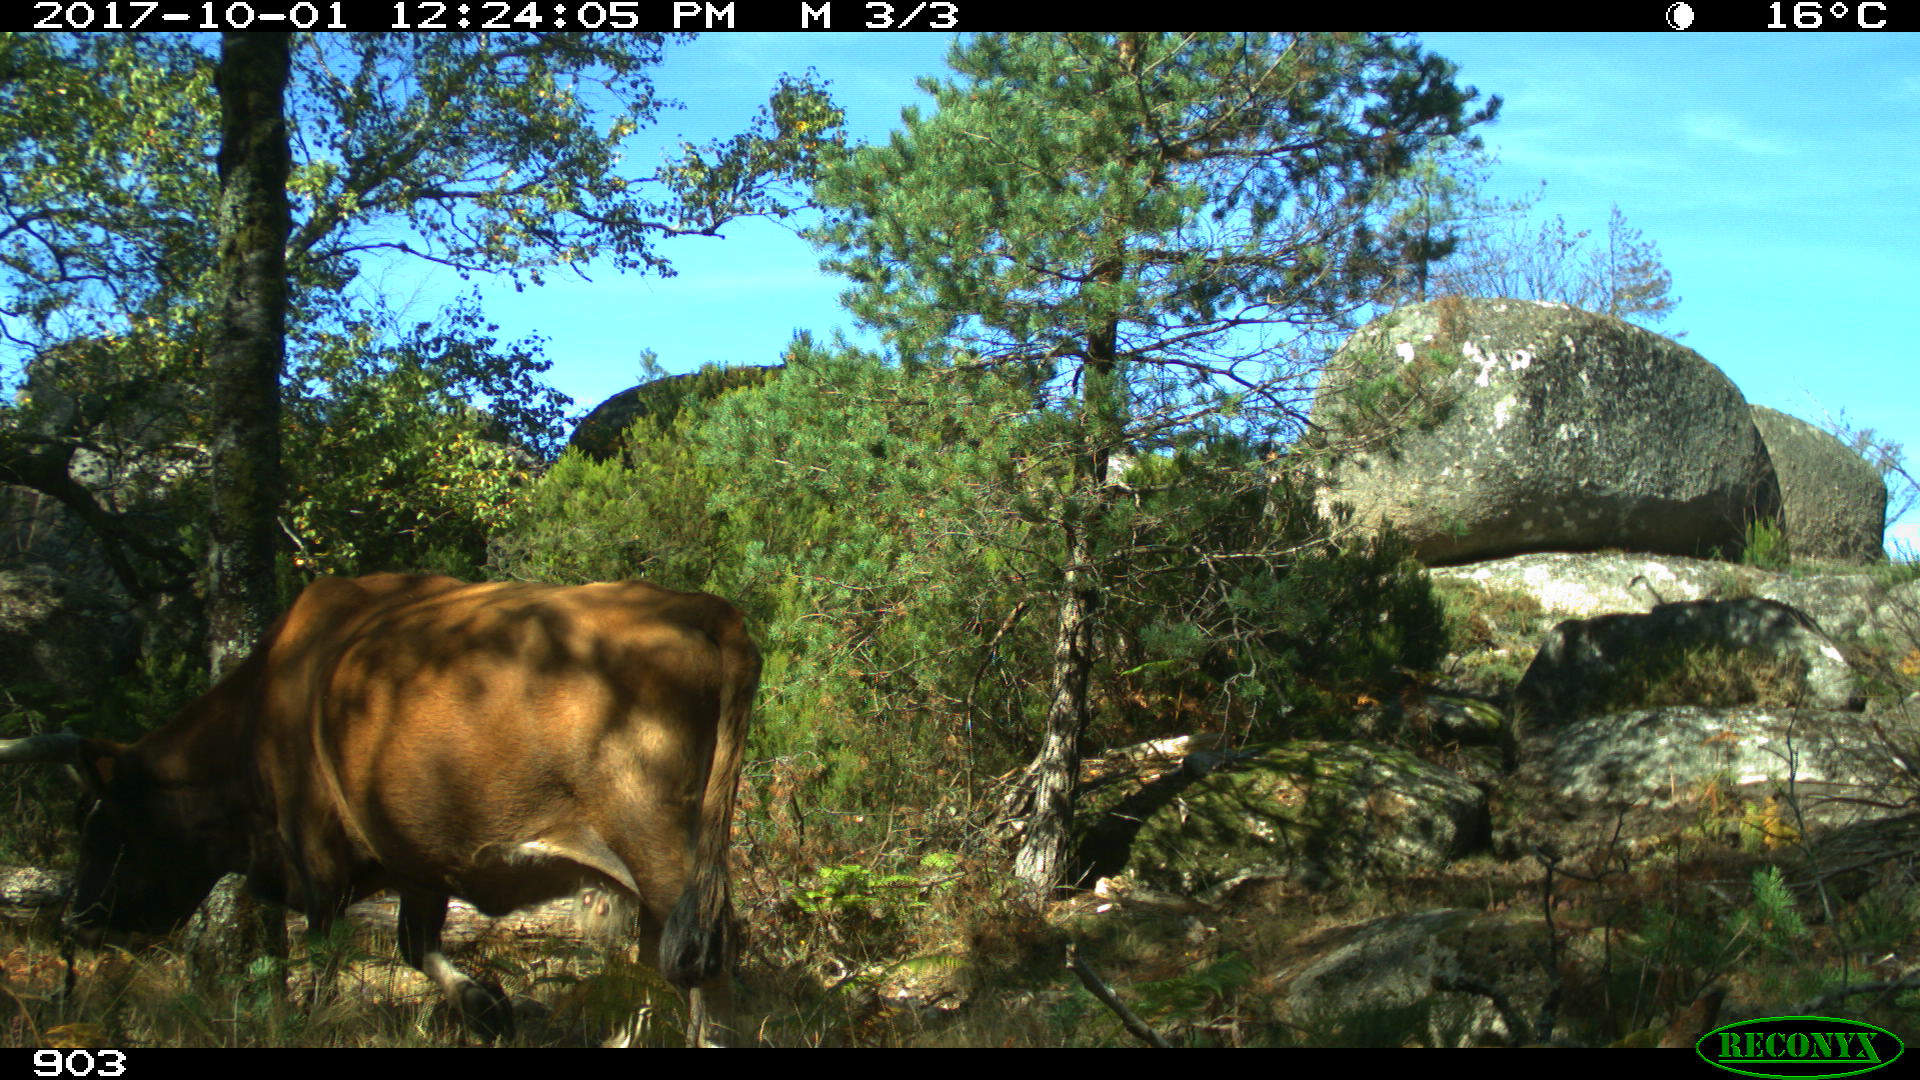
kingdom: Animalia
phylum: Chordata
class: Mammalia
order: Artiodactyla
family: Bovidae
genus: Bos
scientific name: Bos taurus
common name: Domesticated cattle
